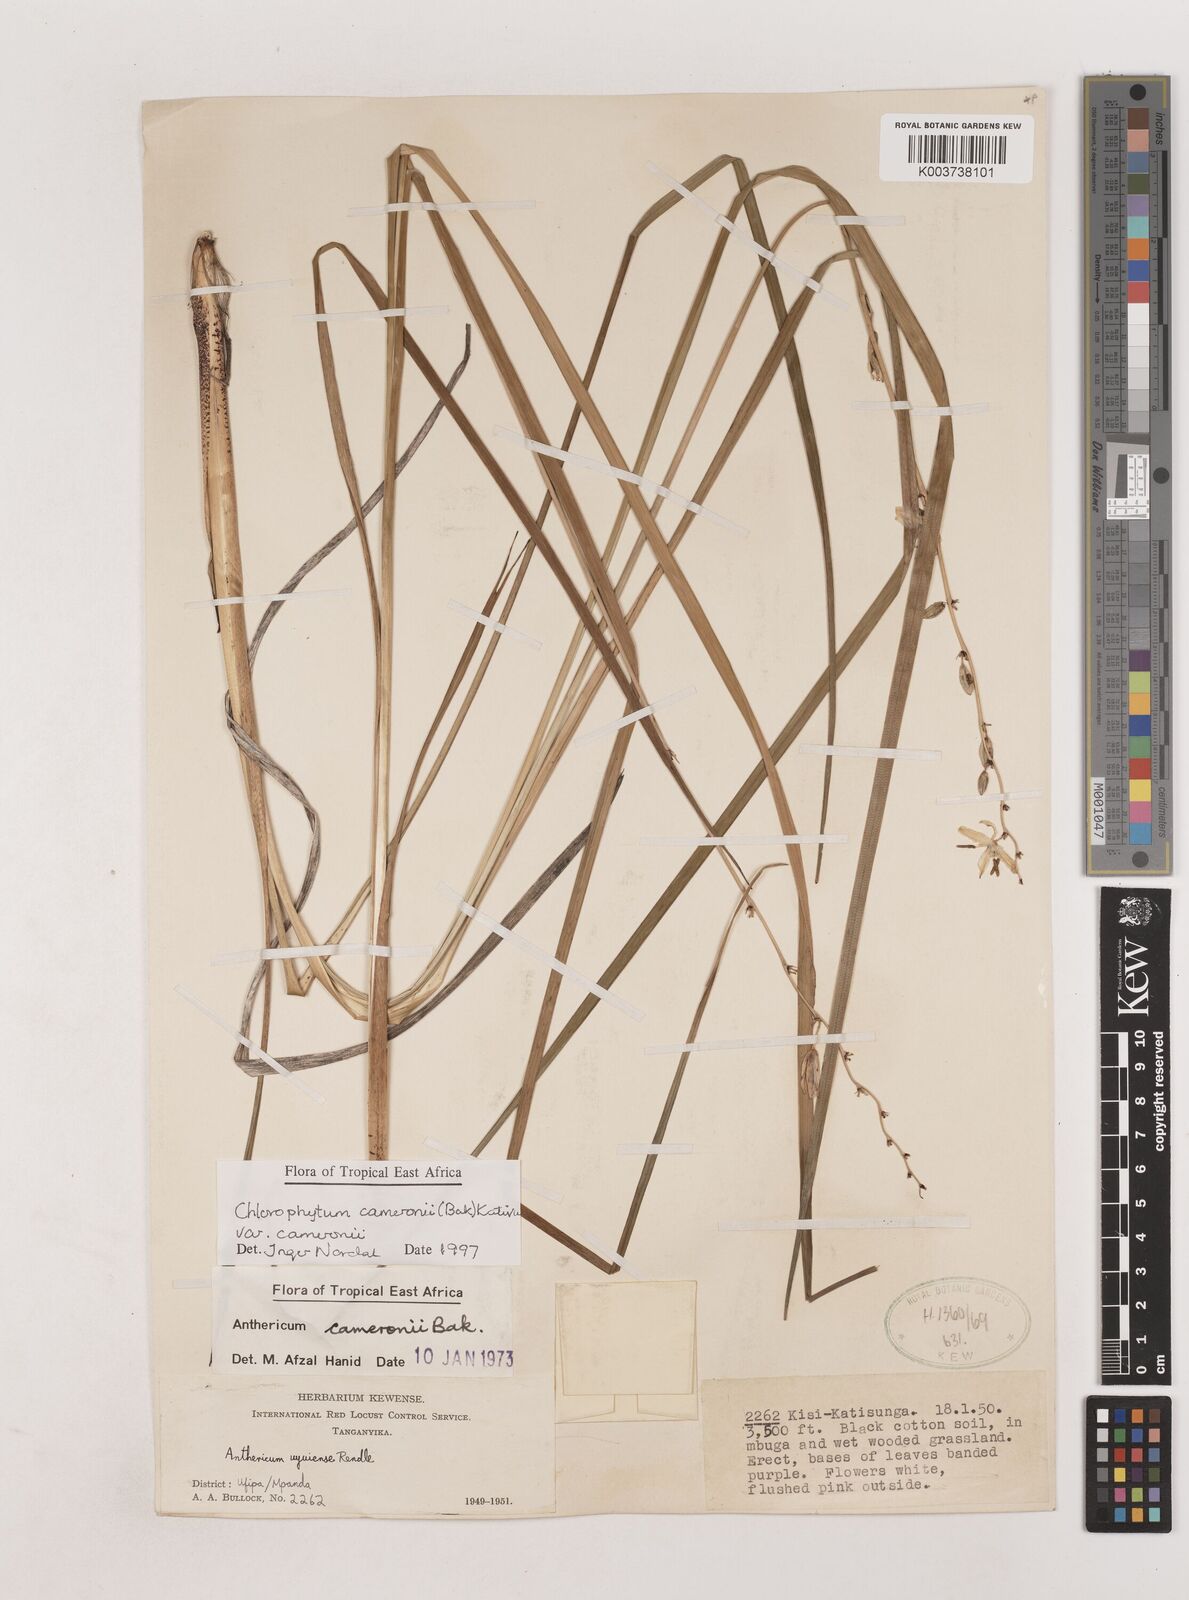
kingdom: Plantae
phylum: Tracheophyta
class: Liliopsida
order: Asparagales
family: Asparagaceae
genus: Chlorophytum
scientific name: Chlorophytum cameronii
